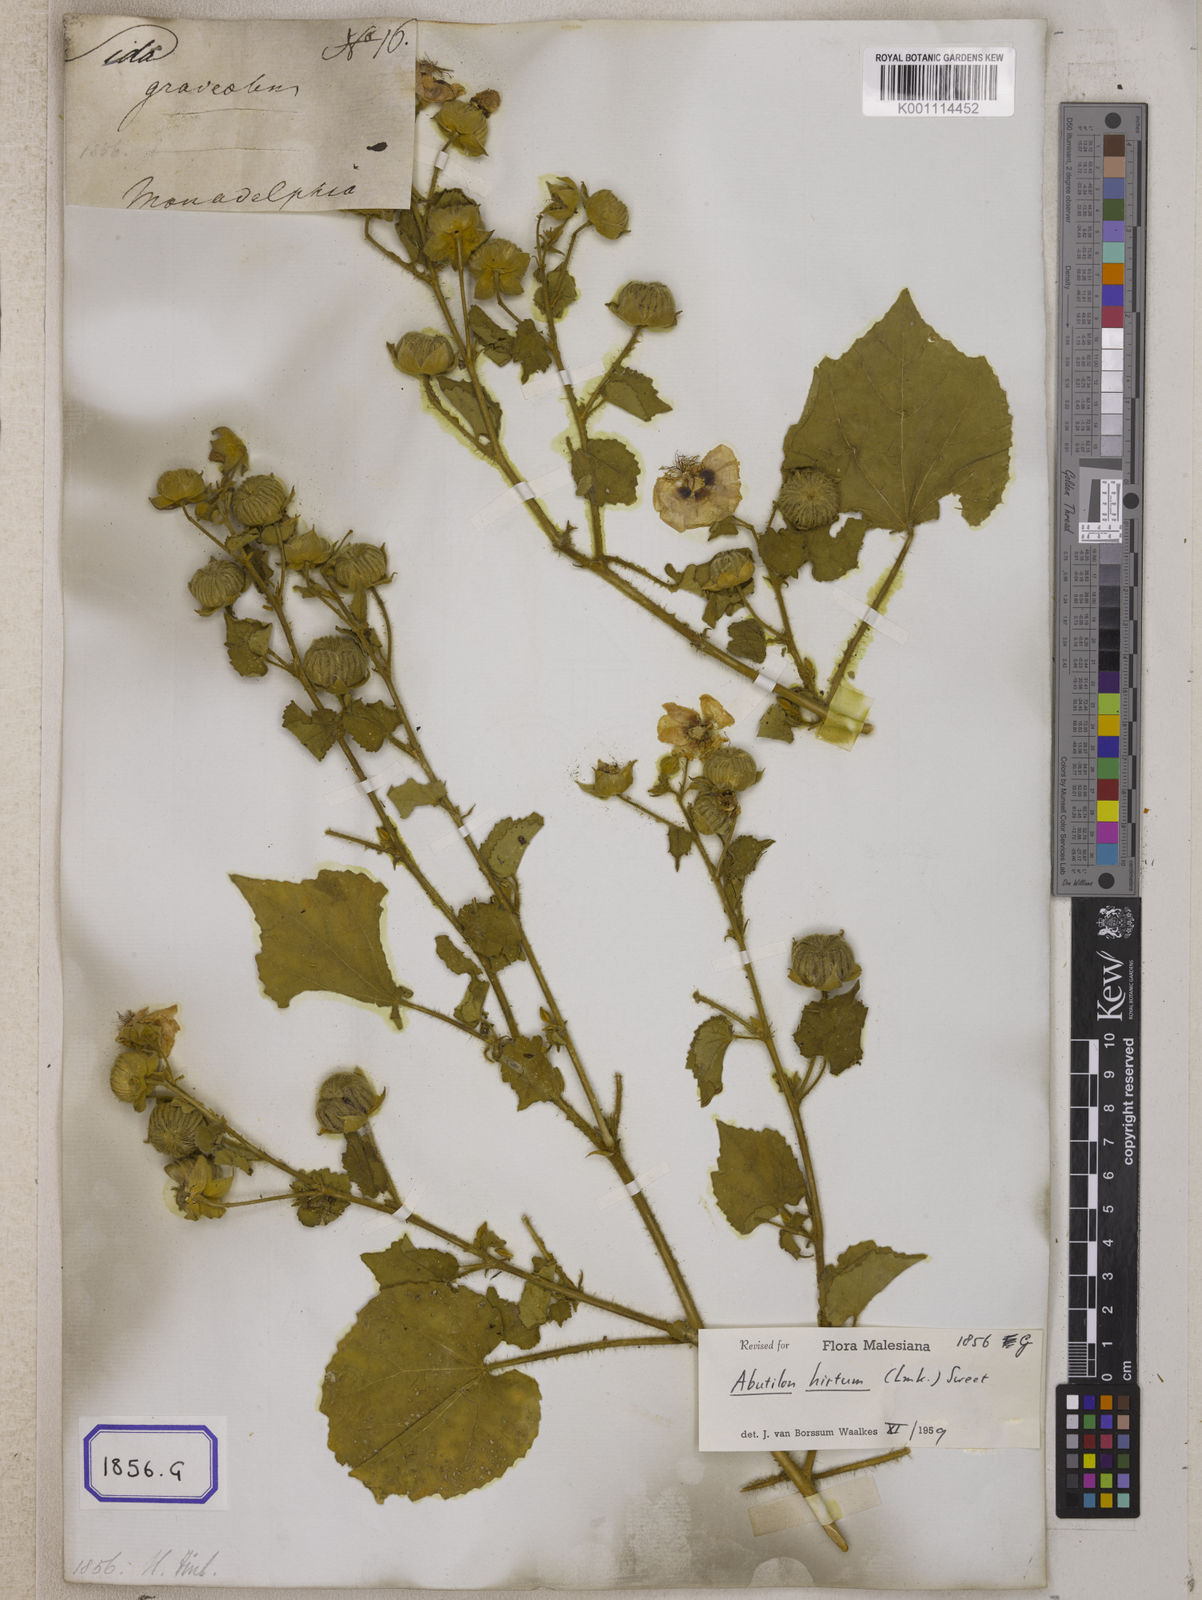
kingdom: Plantae
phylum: Tracheophyta
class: Magnoliopsida
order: Malvales
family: Malvaceae
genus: Sida
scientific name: Sida
